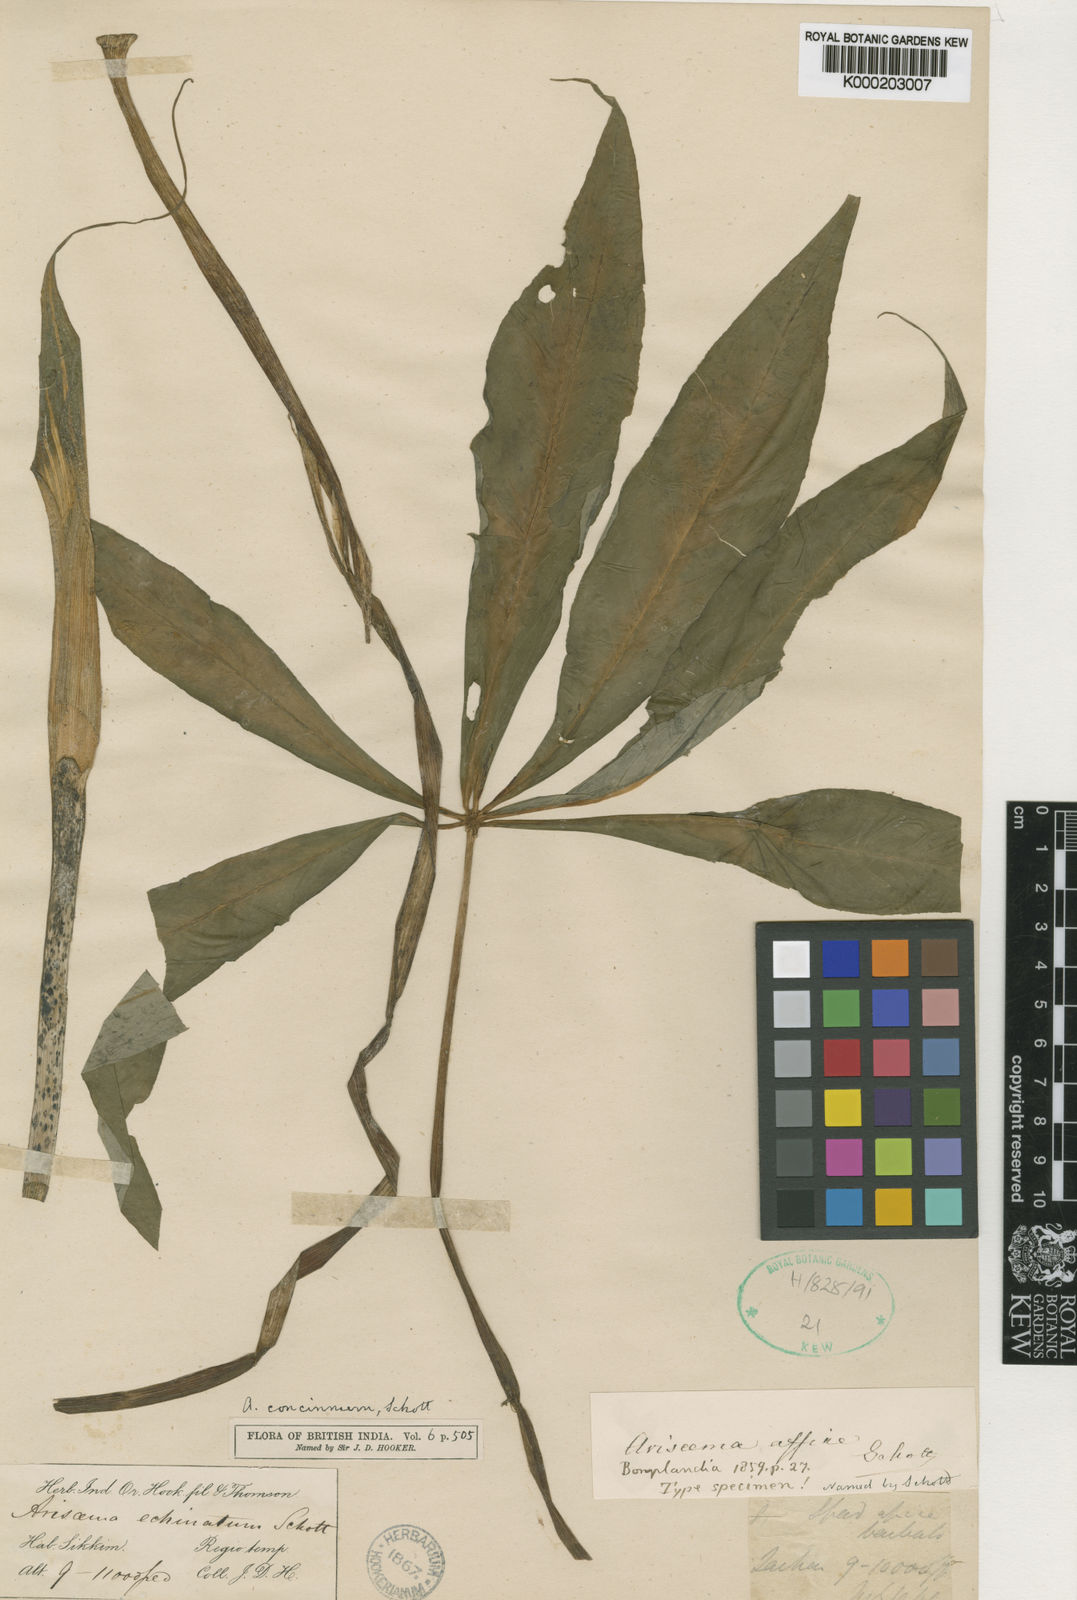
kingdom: Plantae
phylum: Tracheophyta
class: Liliopsida
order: Alismatales
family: Araceae
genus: Arisaema
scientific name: Arisaema concinnum
